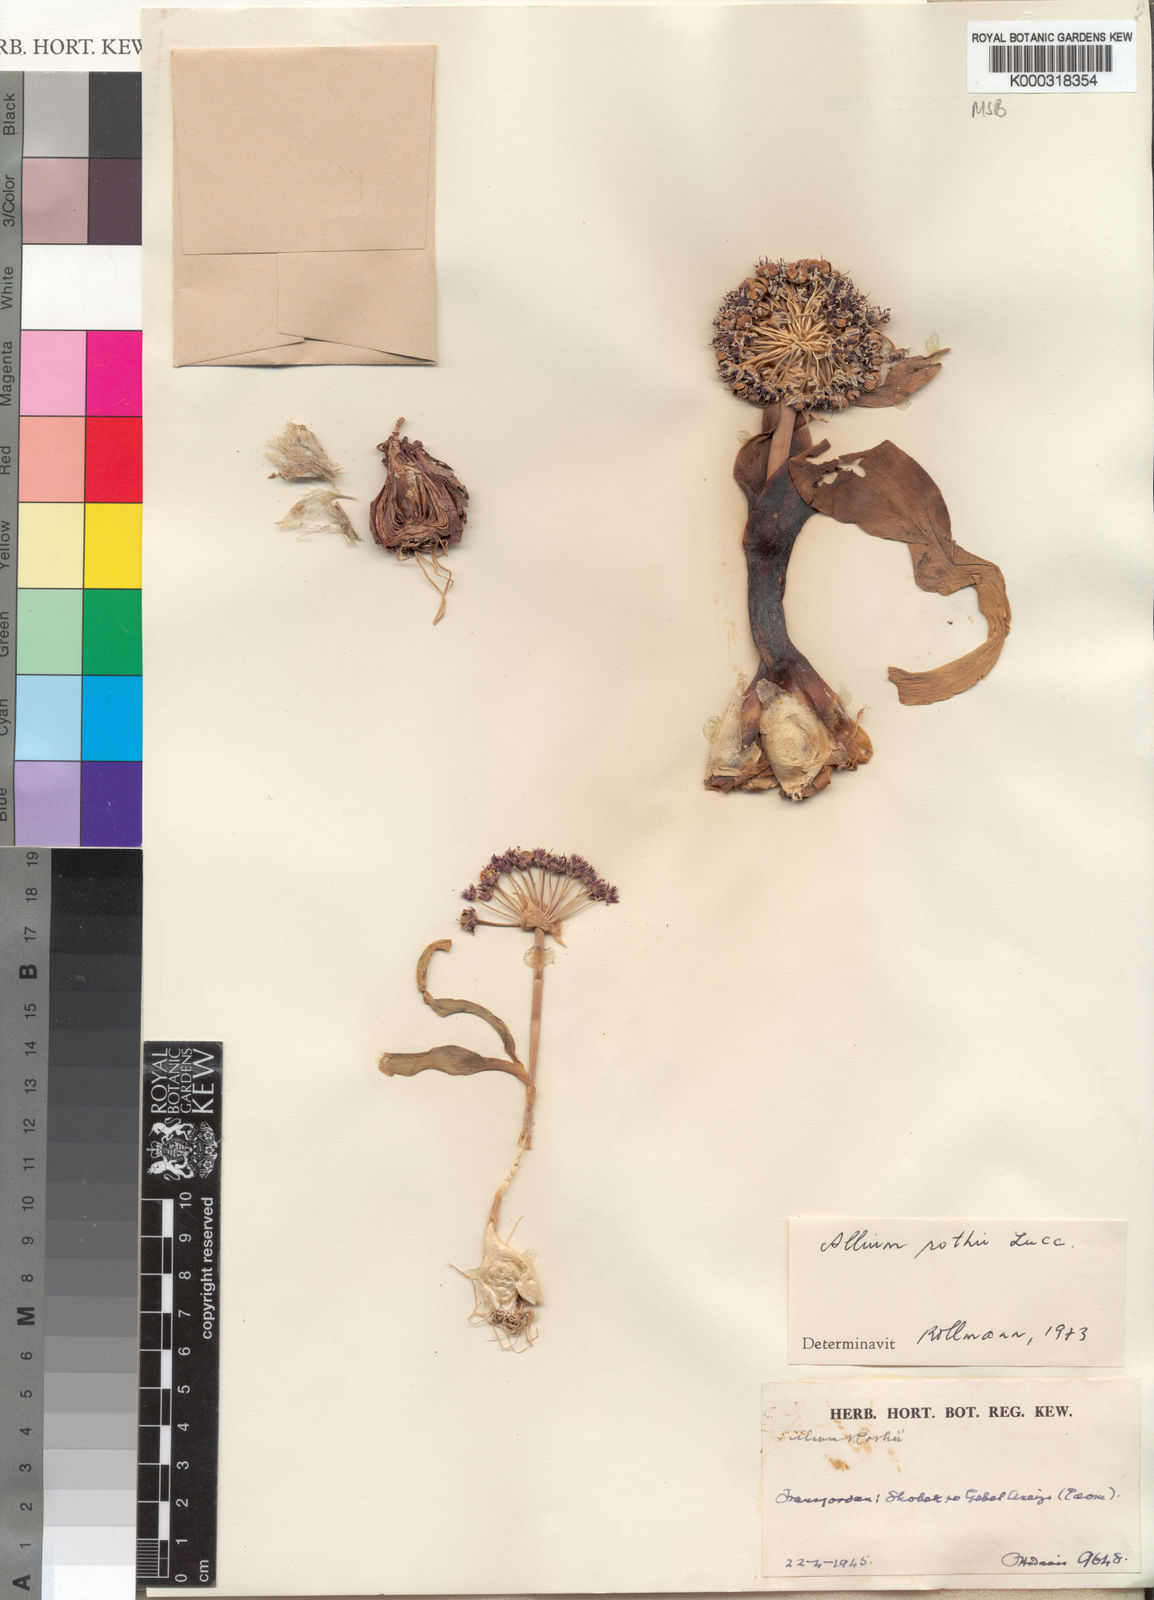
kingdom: Plantae
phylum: Tracheophyta
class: Liliopsida
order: Asparagales
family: Amaryllidaceae
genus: Allium
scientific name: Allium rothii
